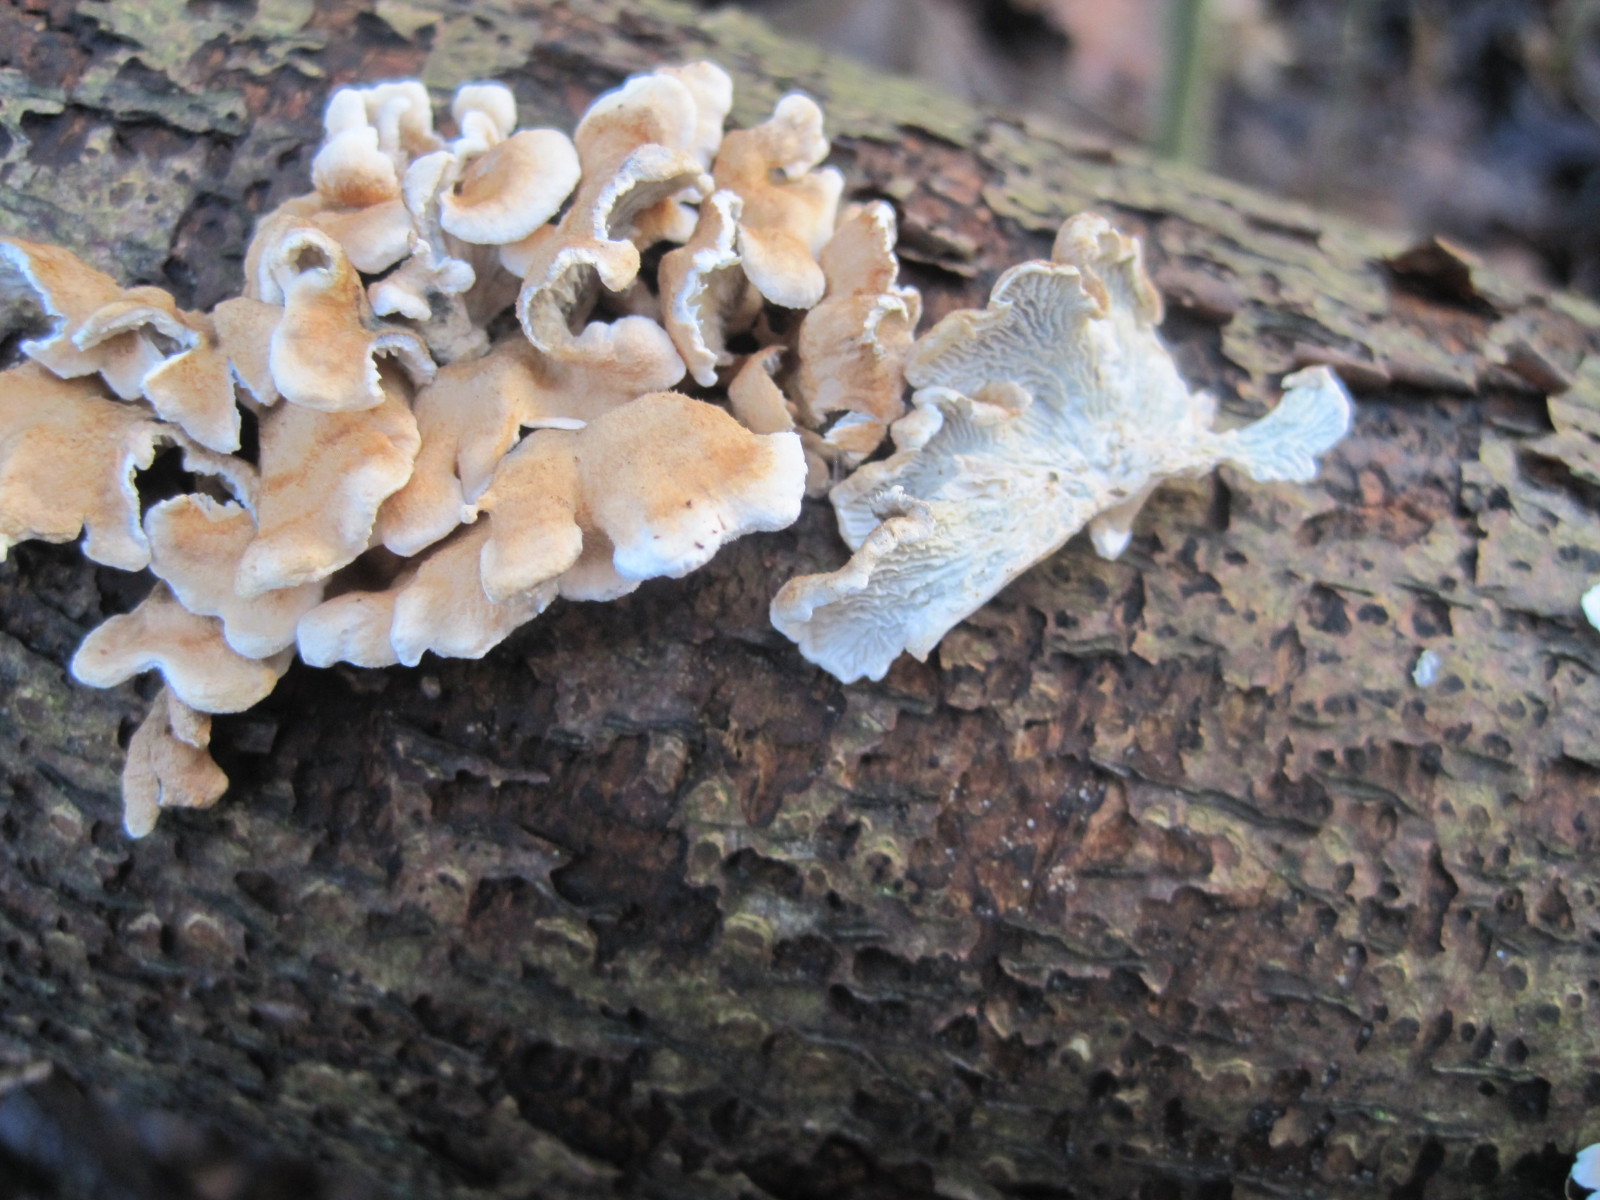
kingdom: Fungi
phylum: Basidiomycota
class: Agaricomycetes
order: Amylocorticiales
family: Amylocorticiaceae
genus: Plicaturopsis
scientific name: Plicaturopsis crispa
